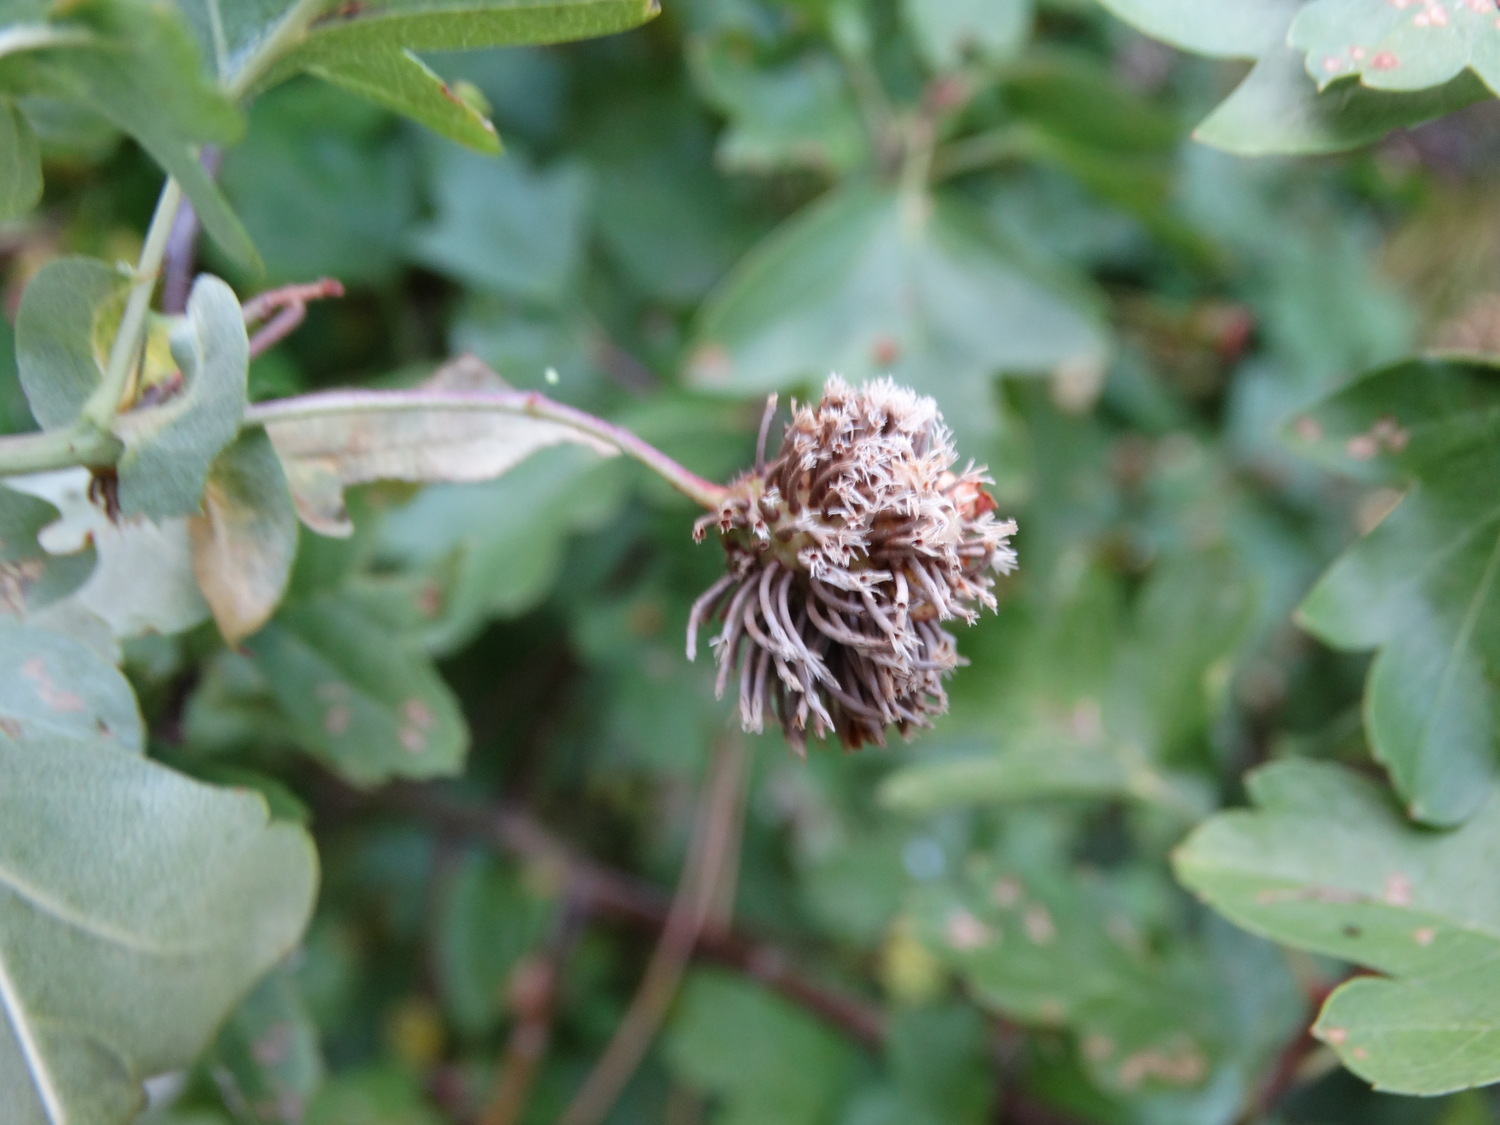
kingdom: Fungi
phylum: Basidiomycota
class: Pucciniomycetes
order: Pucciniales
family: Gymnosporangiaceae
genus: Gymnosporangium
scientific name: Gymnosporangium
